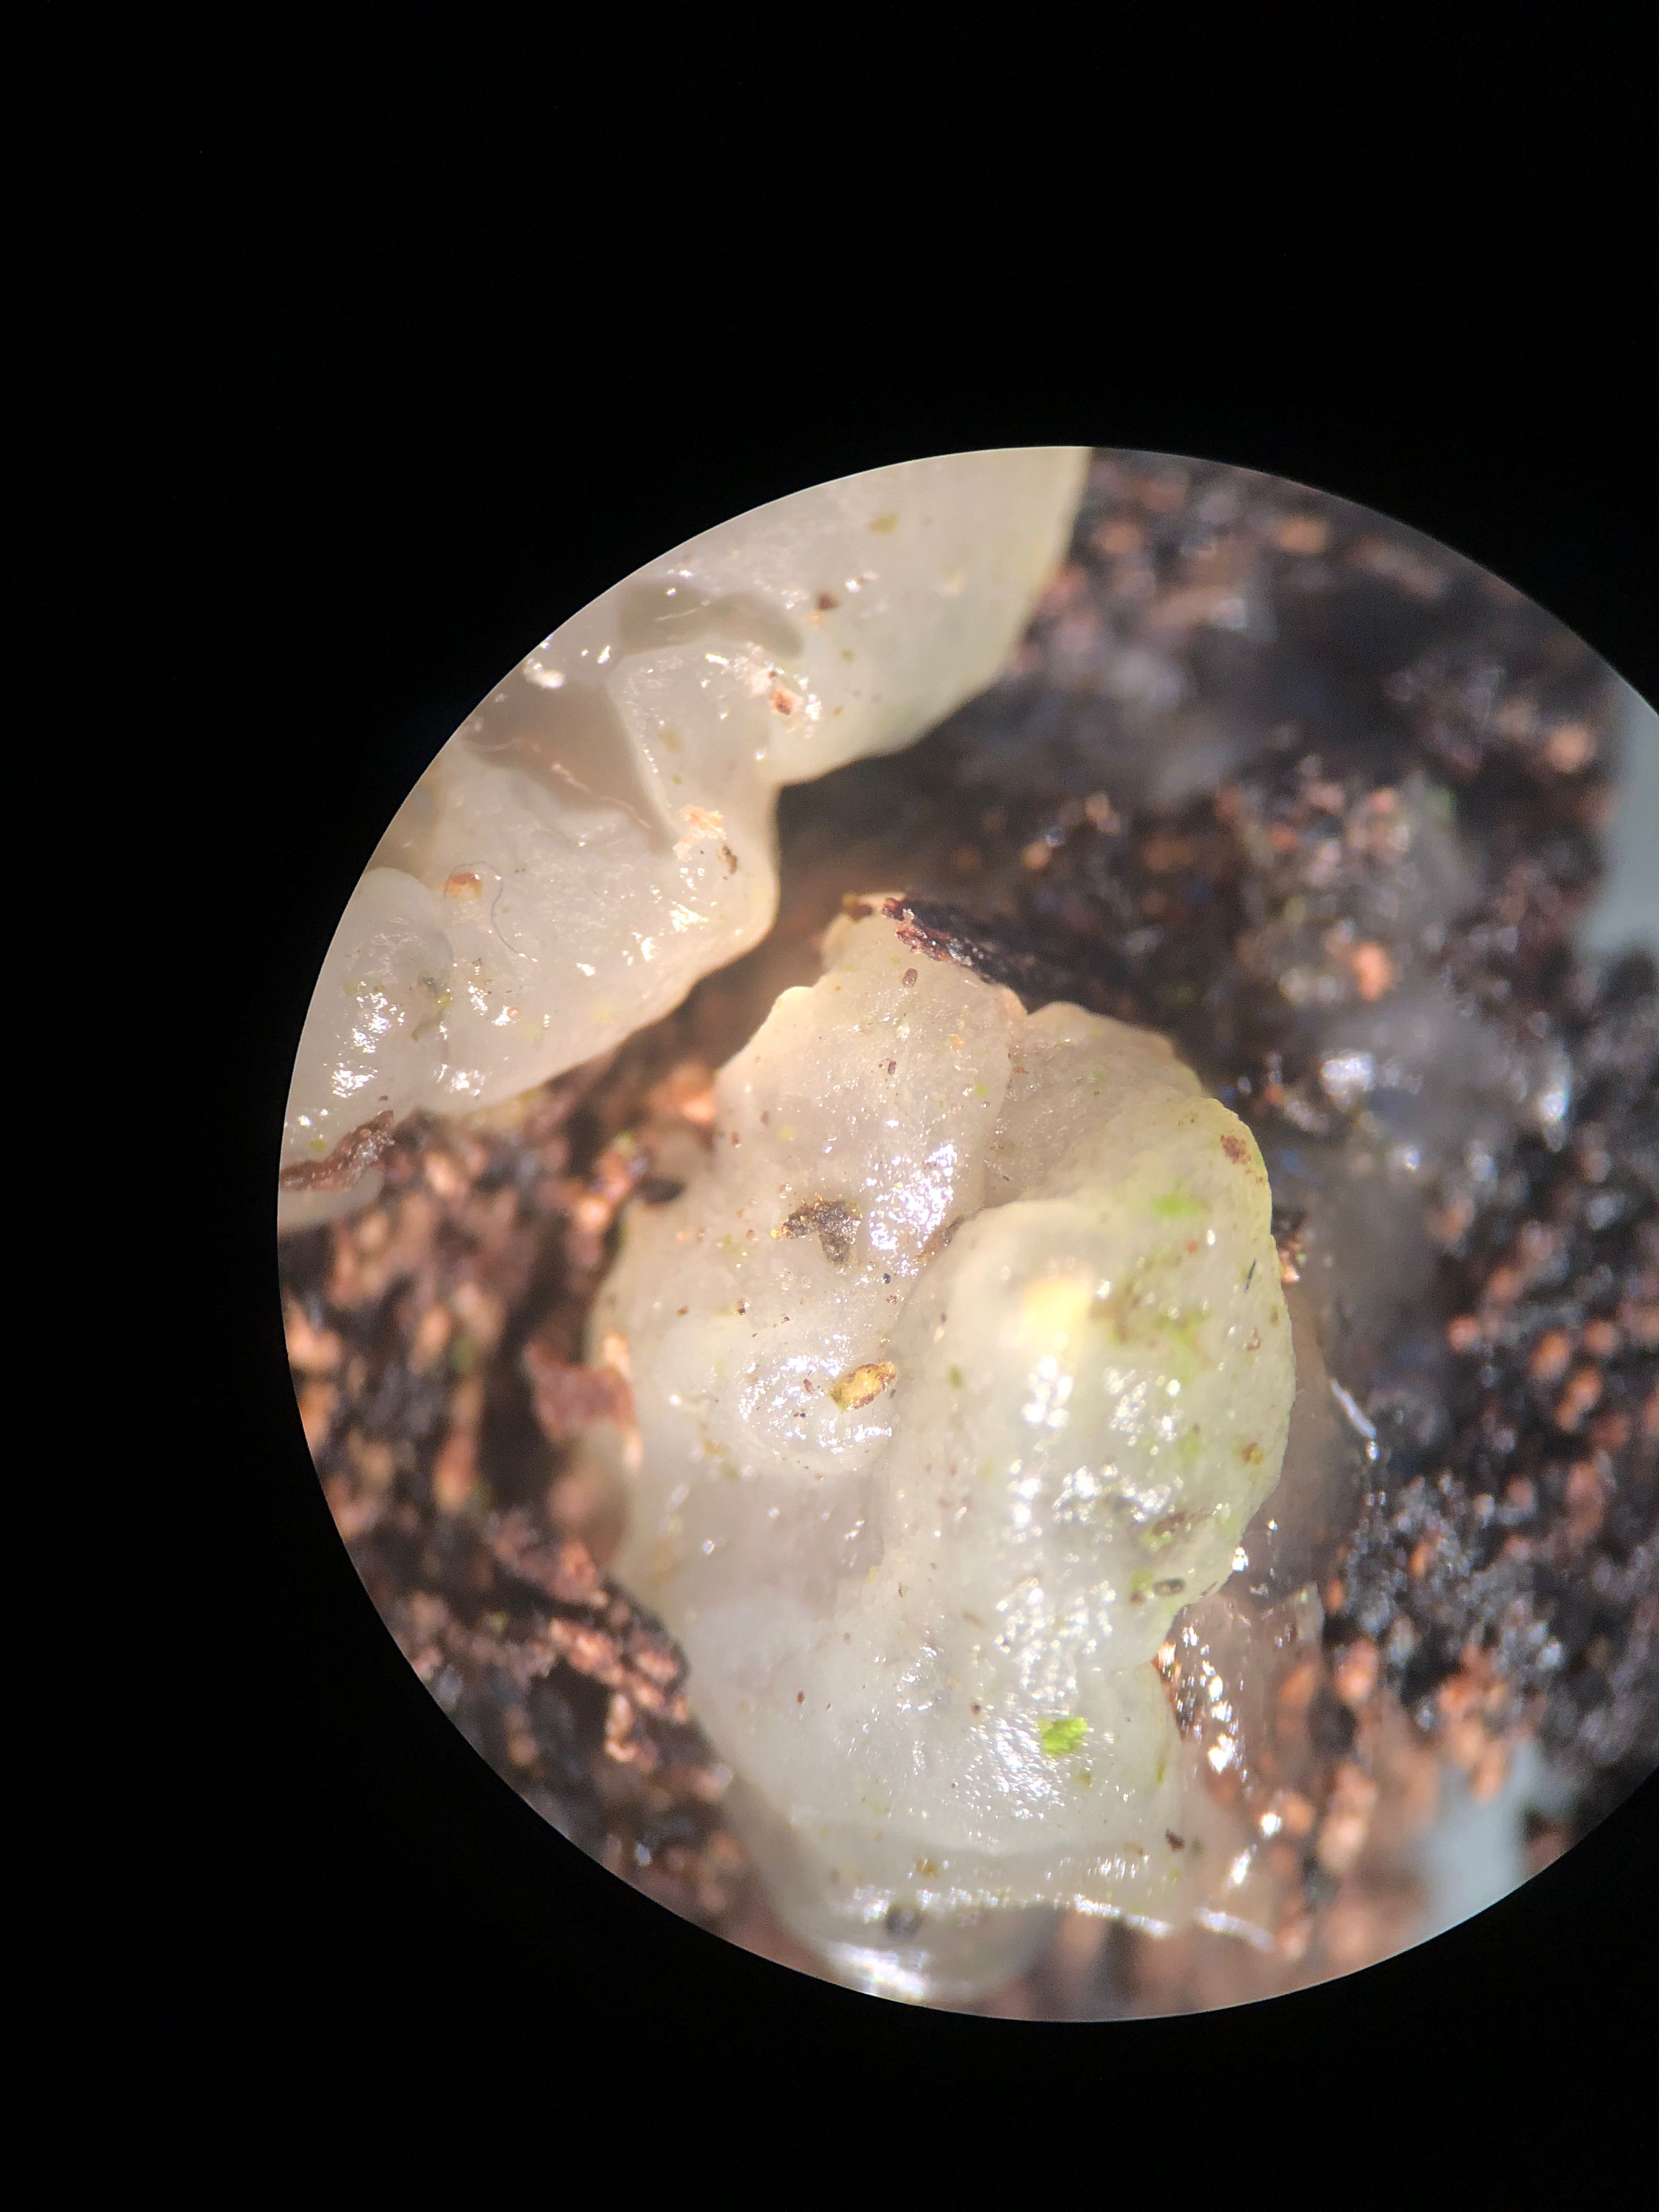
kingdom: Fungi
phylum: Basidiomycota
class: Agaricomycetes
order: Auriculariales
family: Hyaloriaceae
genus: Myxarium
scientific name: Myxarium nucleatum
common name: klar bævretop
